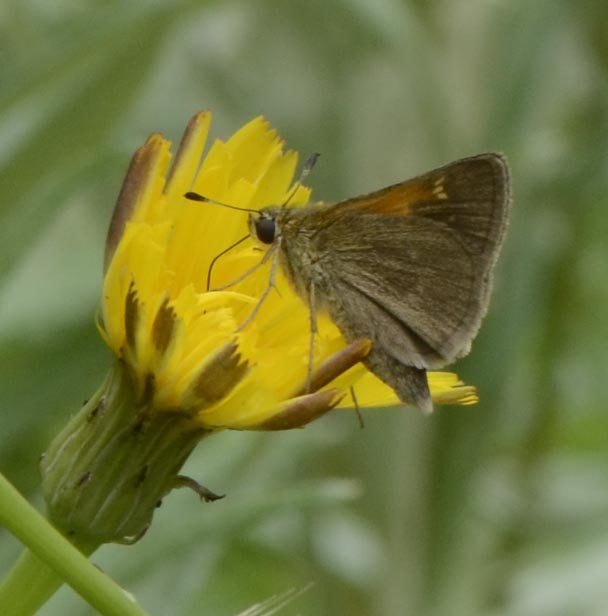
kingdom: Animalia
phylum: Arthropoda
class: Insecta
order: Lepidoptera
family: Hesperiidae
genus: Polites
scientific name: Polites themistocles
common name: Tawny-edged Skipper
